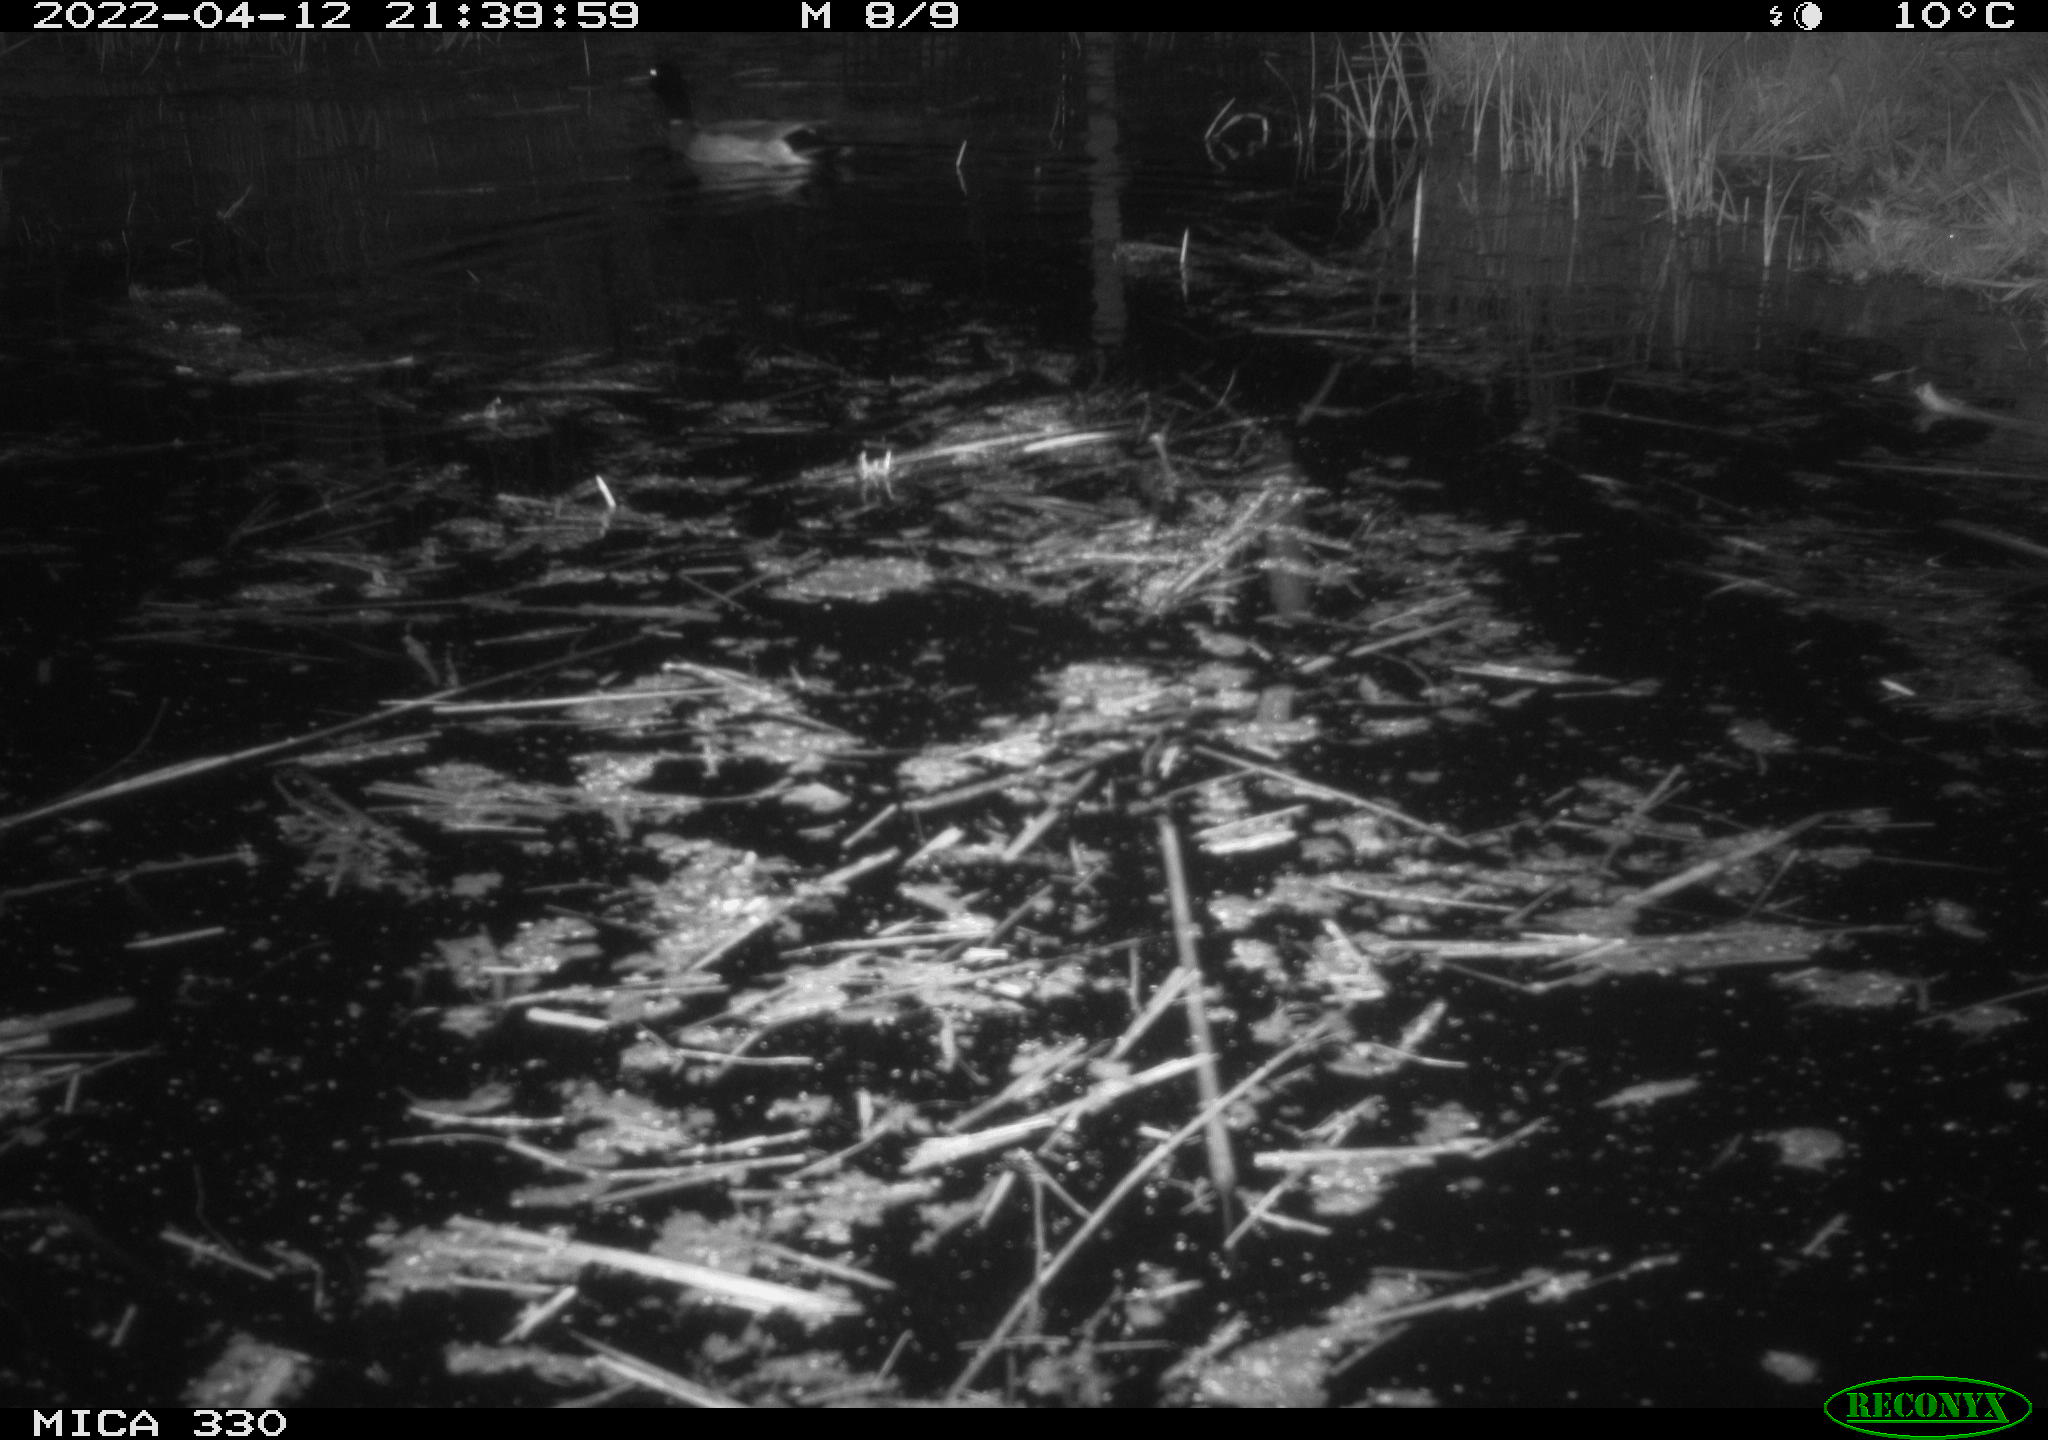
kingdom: Animalia
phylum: Chordata
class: Aves
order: Anseriformes
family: Anatidae
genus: Anas
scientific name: Anas platyrhynchos
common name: Mallard
